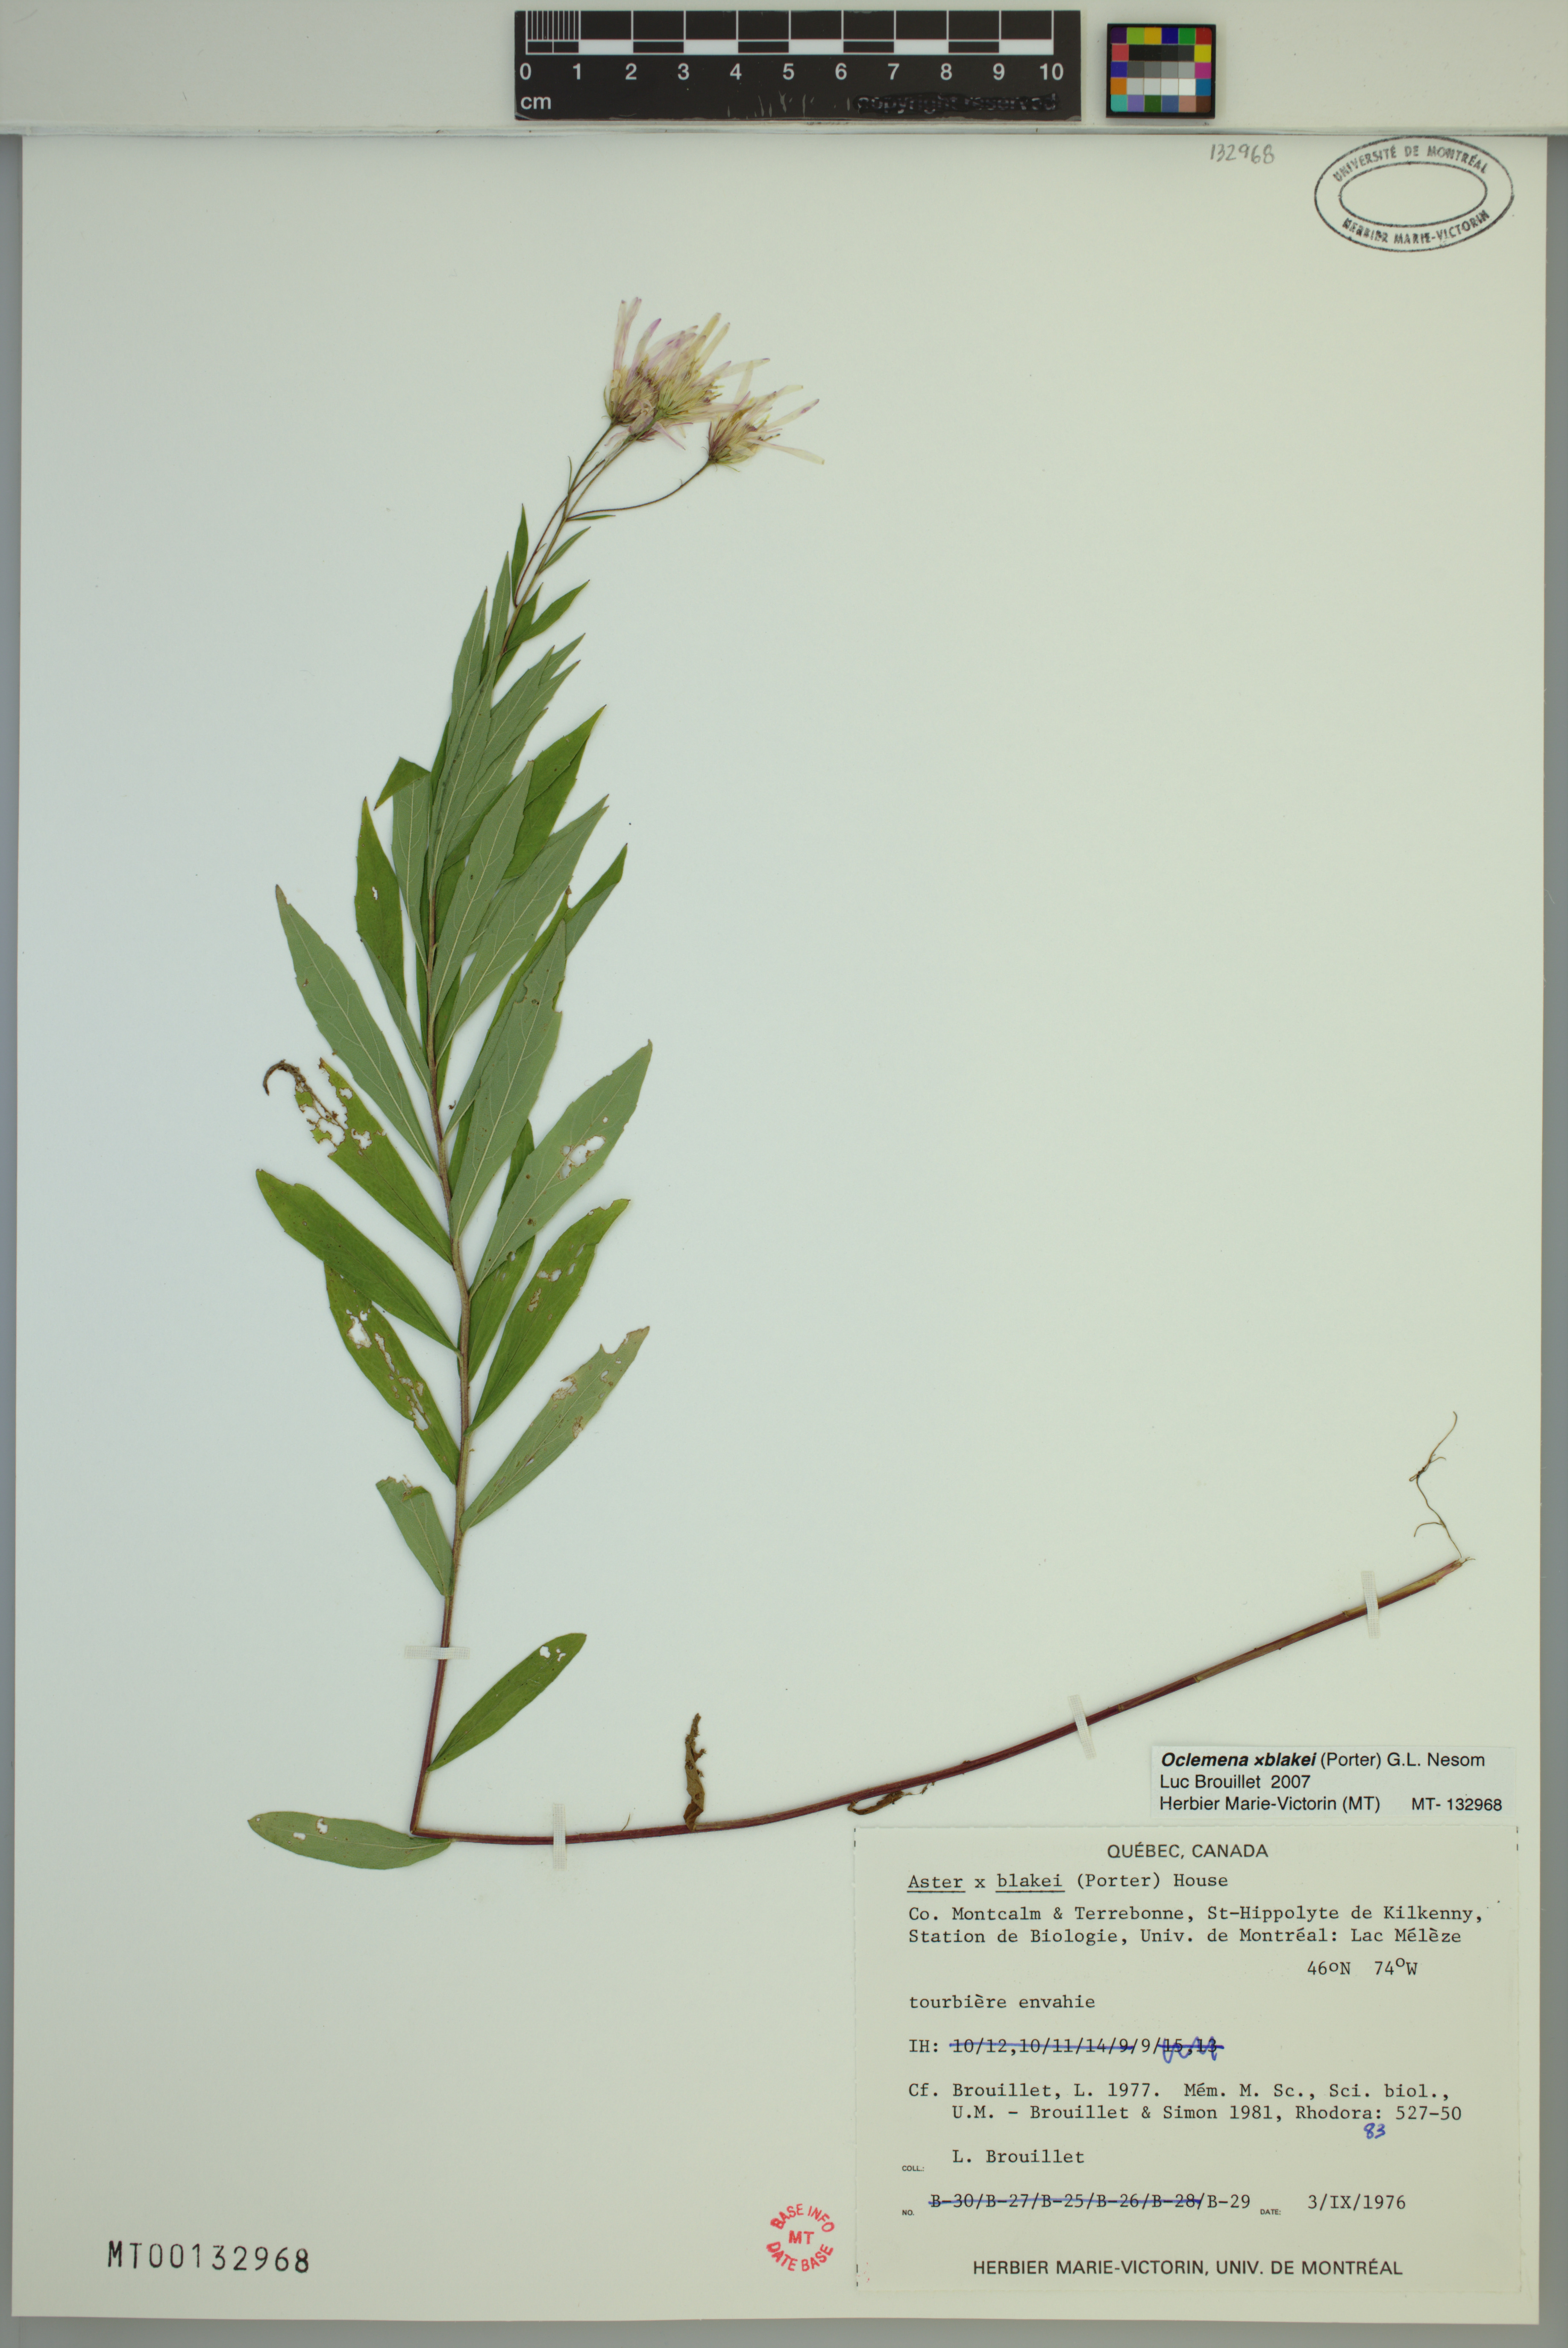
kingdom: Plantae
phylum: Tracheophyta
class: Magnoliopsida
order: Asterales
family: Asteraceae
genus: Oclemena
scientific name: Oclemena blakei
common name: Blake's aster
